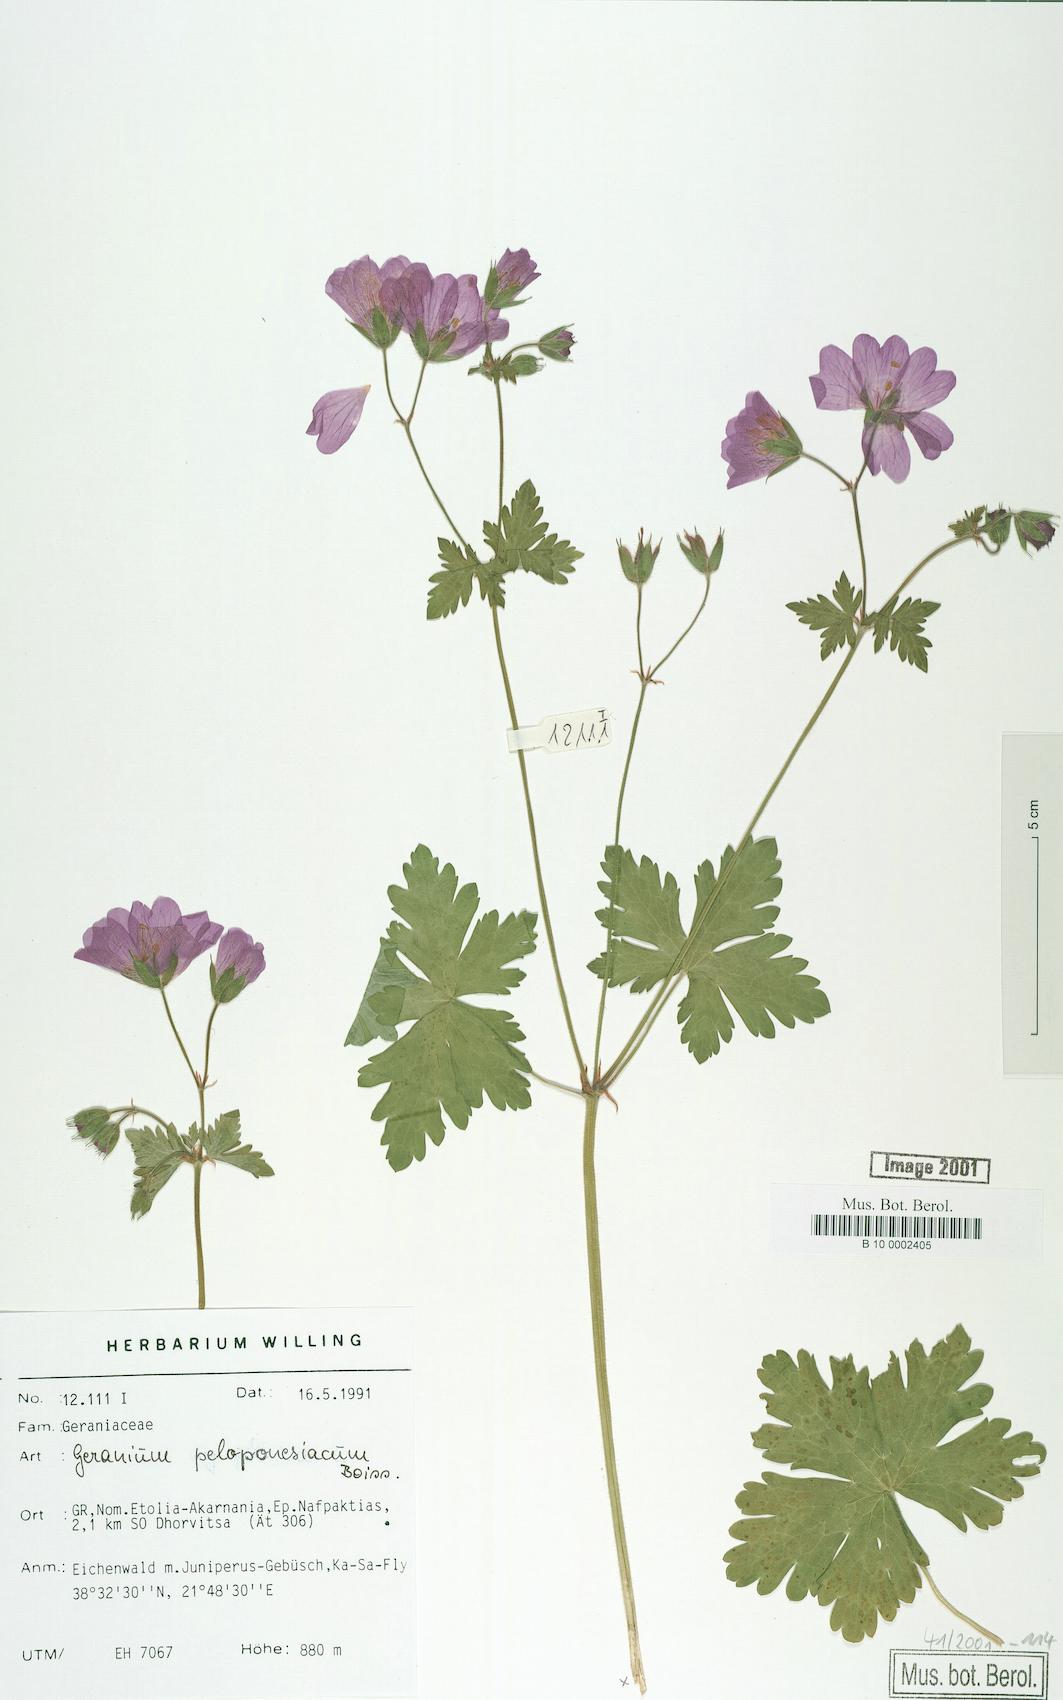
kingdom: Plantae
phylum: Tracheophyta
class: Magnoliopsida
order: Geraniales
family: Geraniaceae
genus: Geranium
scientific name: Geranium peloponnesiacum
